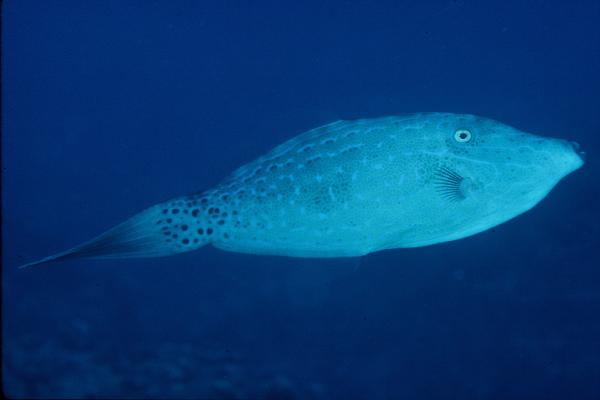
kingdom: Animalia
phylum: Chordata
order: Tetraodontiformes
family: Monacanthidae
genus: Aluterus
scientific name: Aluterus scriptus
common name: Scribbled leatherjacket filefish
